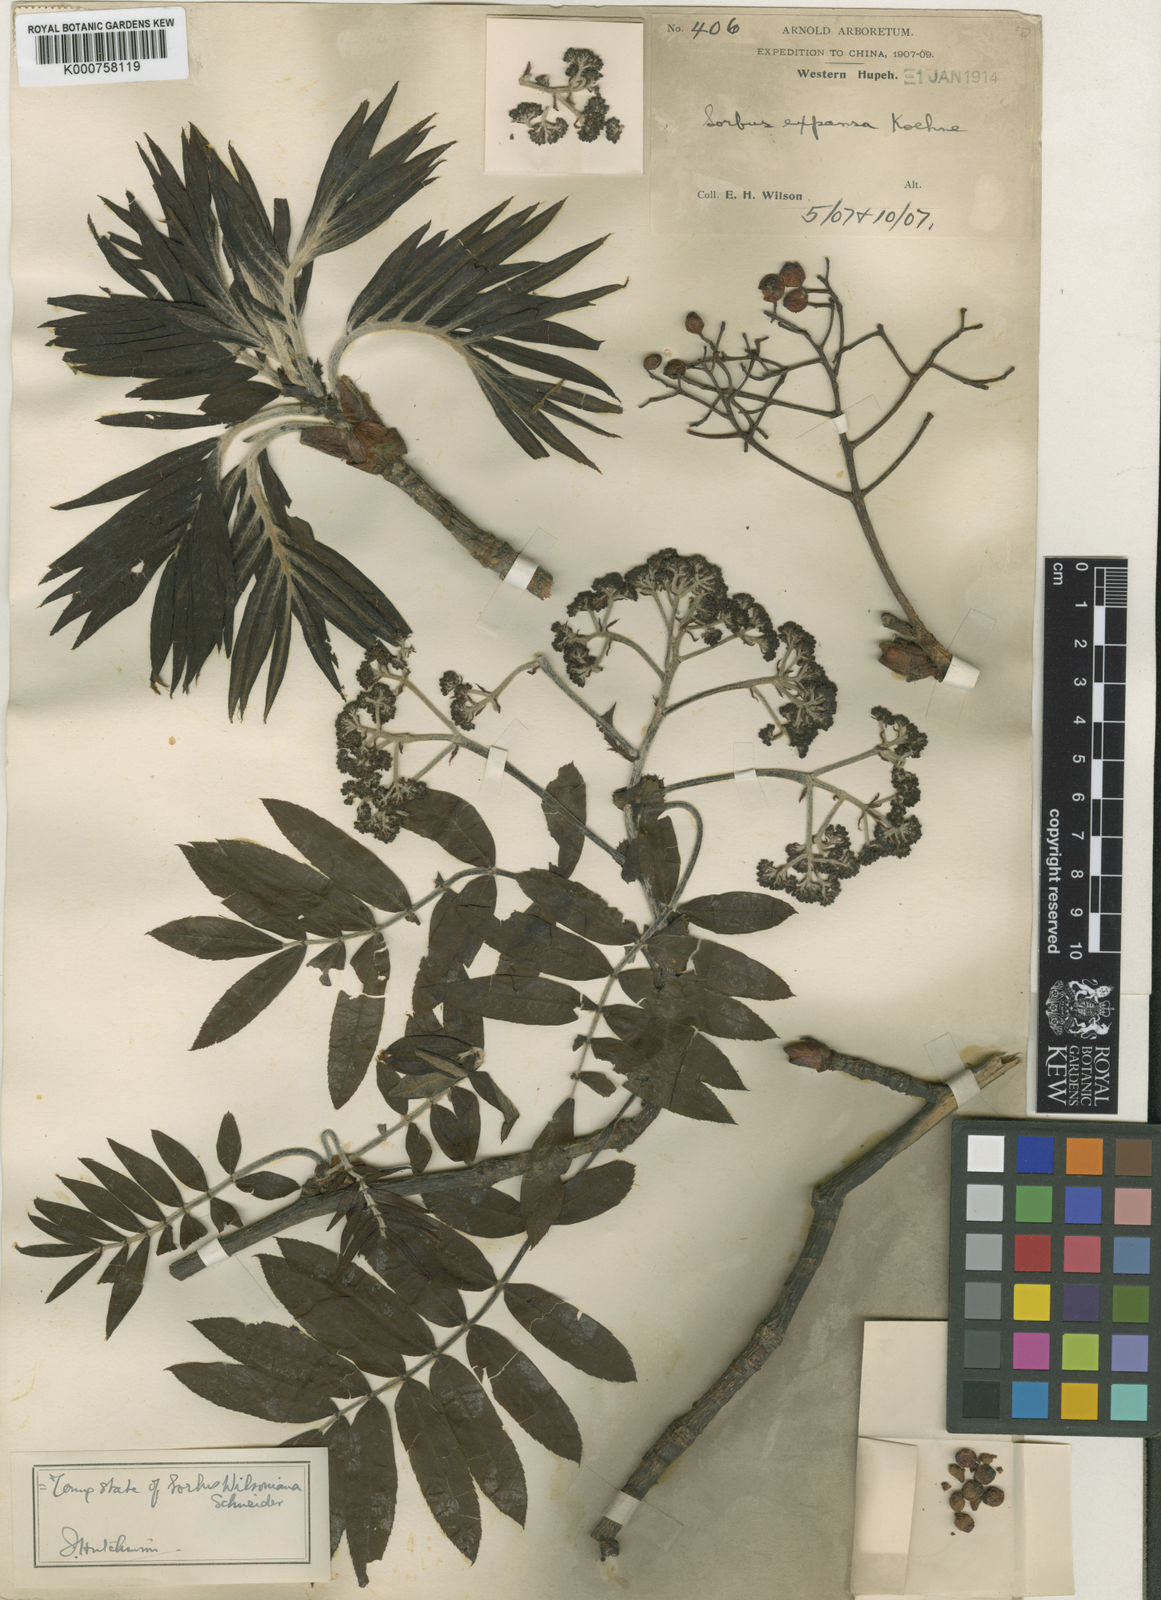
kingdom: Plantae
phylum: Tracheophyta
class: Magnoliopsida
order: Rosales
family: Rosaceae
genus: Sorbus
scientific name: Sorbus wilsoniana
